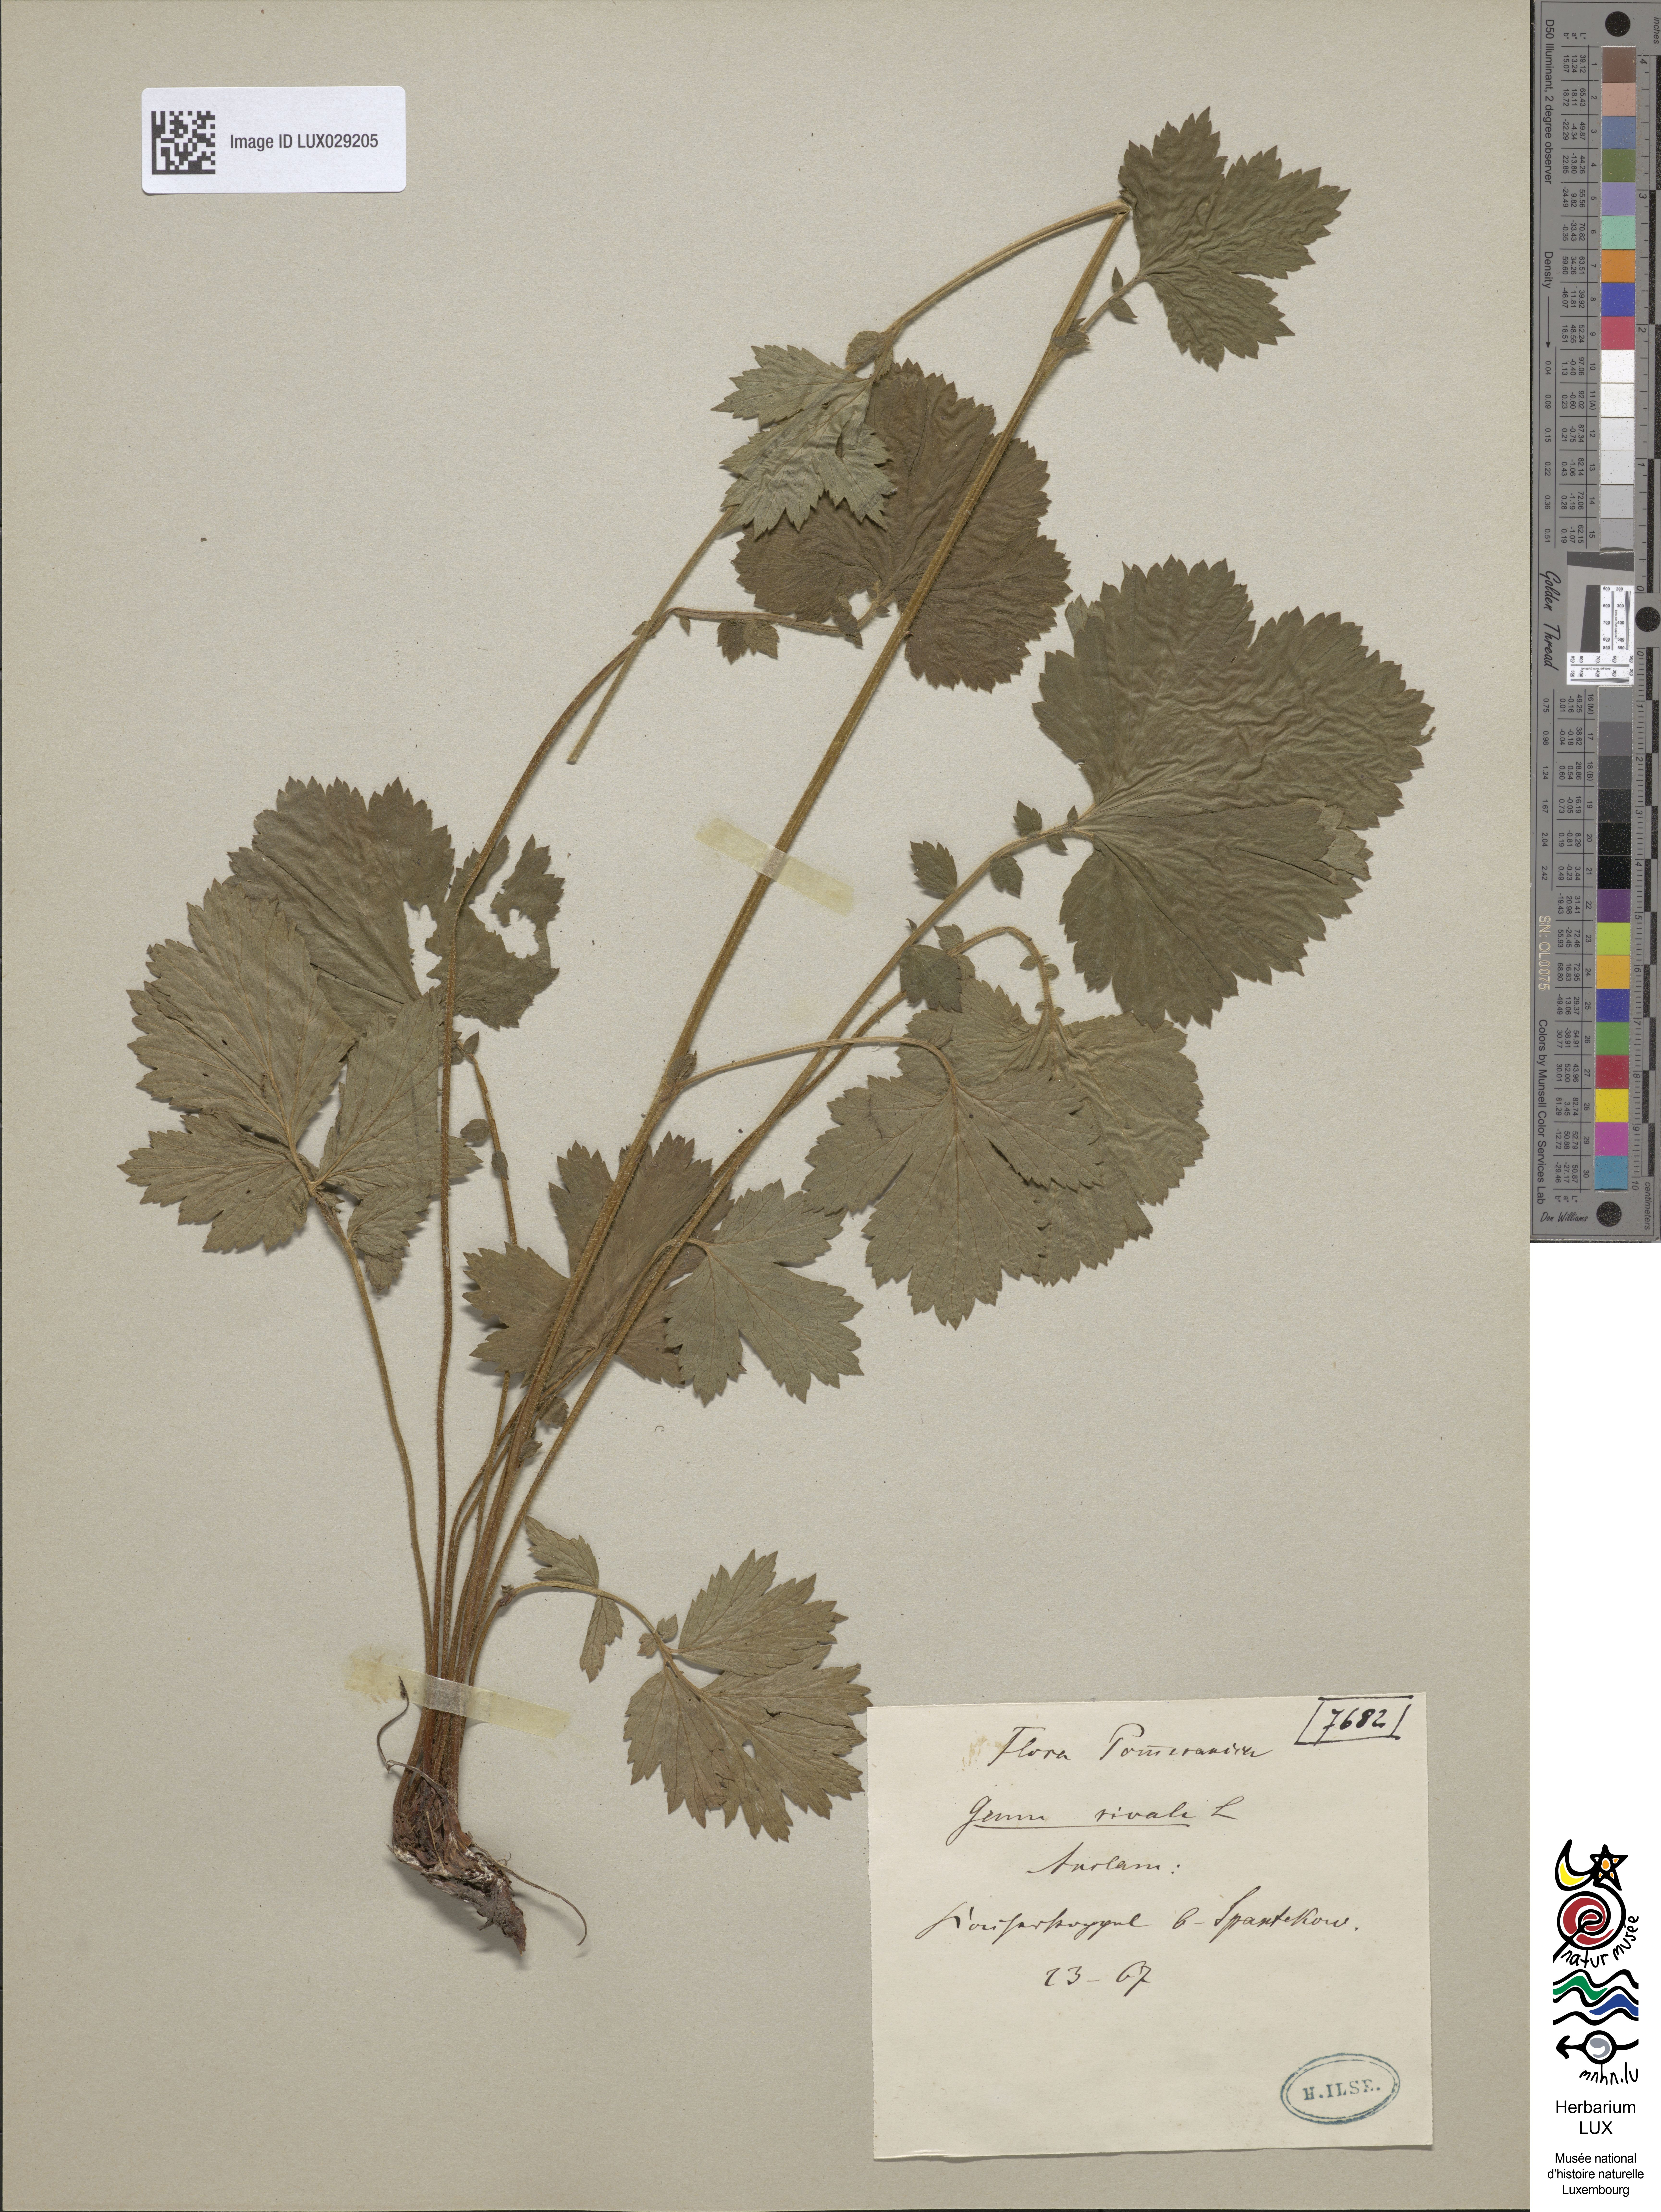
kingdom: Plantae
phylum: Tracheophyta
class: Magnoliopsida
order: Rosales
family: Rosaceae
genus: Geum
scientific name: Geum rivale
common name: Water avens
